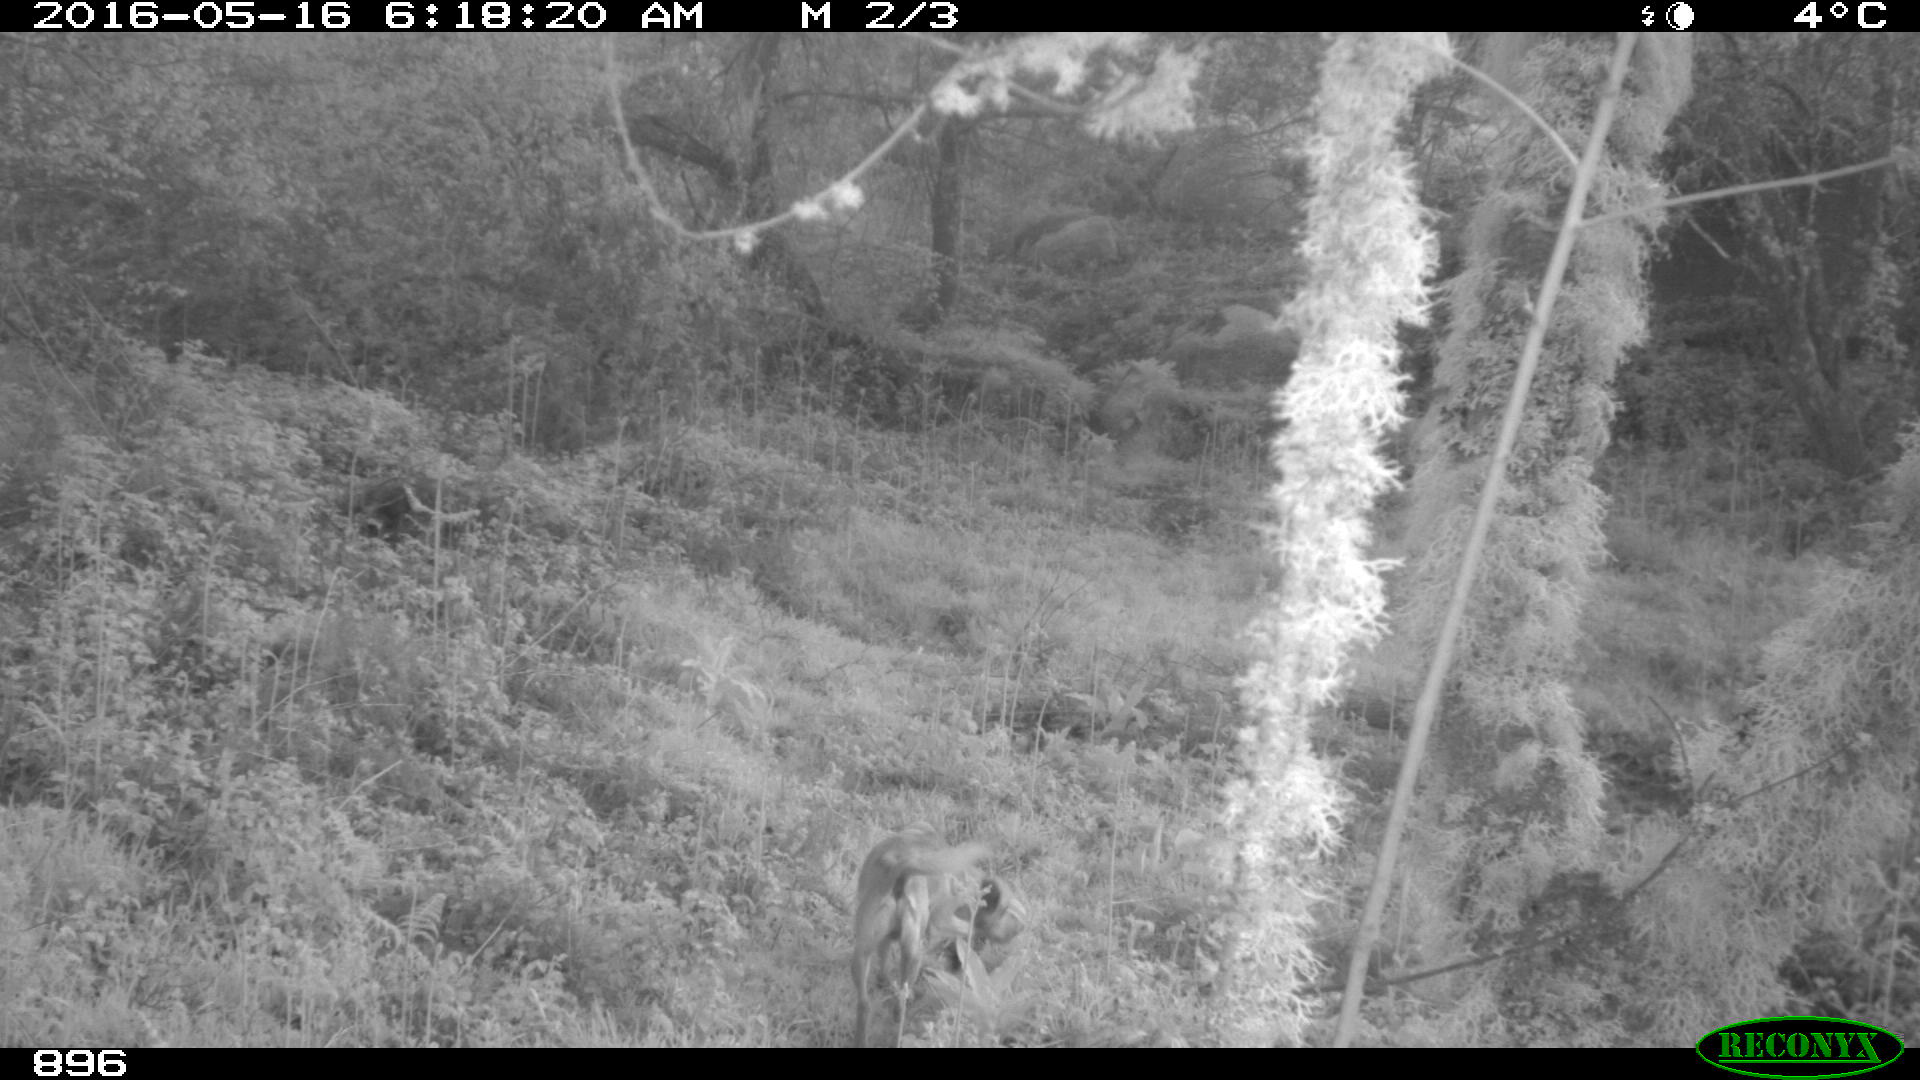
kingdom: Animalia
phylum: Chordata
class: Mammalia
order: Carnivora
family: Canidae
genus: Canis
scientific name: Canis lupus
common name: Gray wolf
